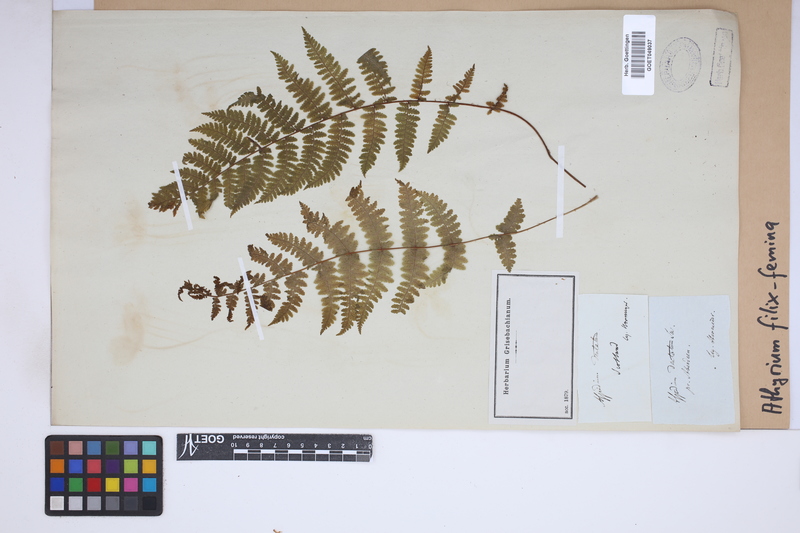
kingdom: Plantae
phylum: Tracheophyta
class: Polypodiopsida
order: Polypodiales
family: Athyriaceae
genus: Athyrium
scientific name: Athyrium filix-femina
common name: Lady fern
